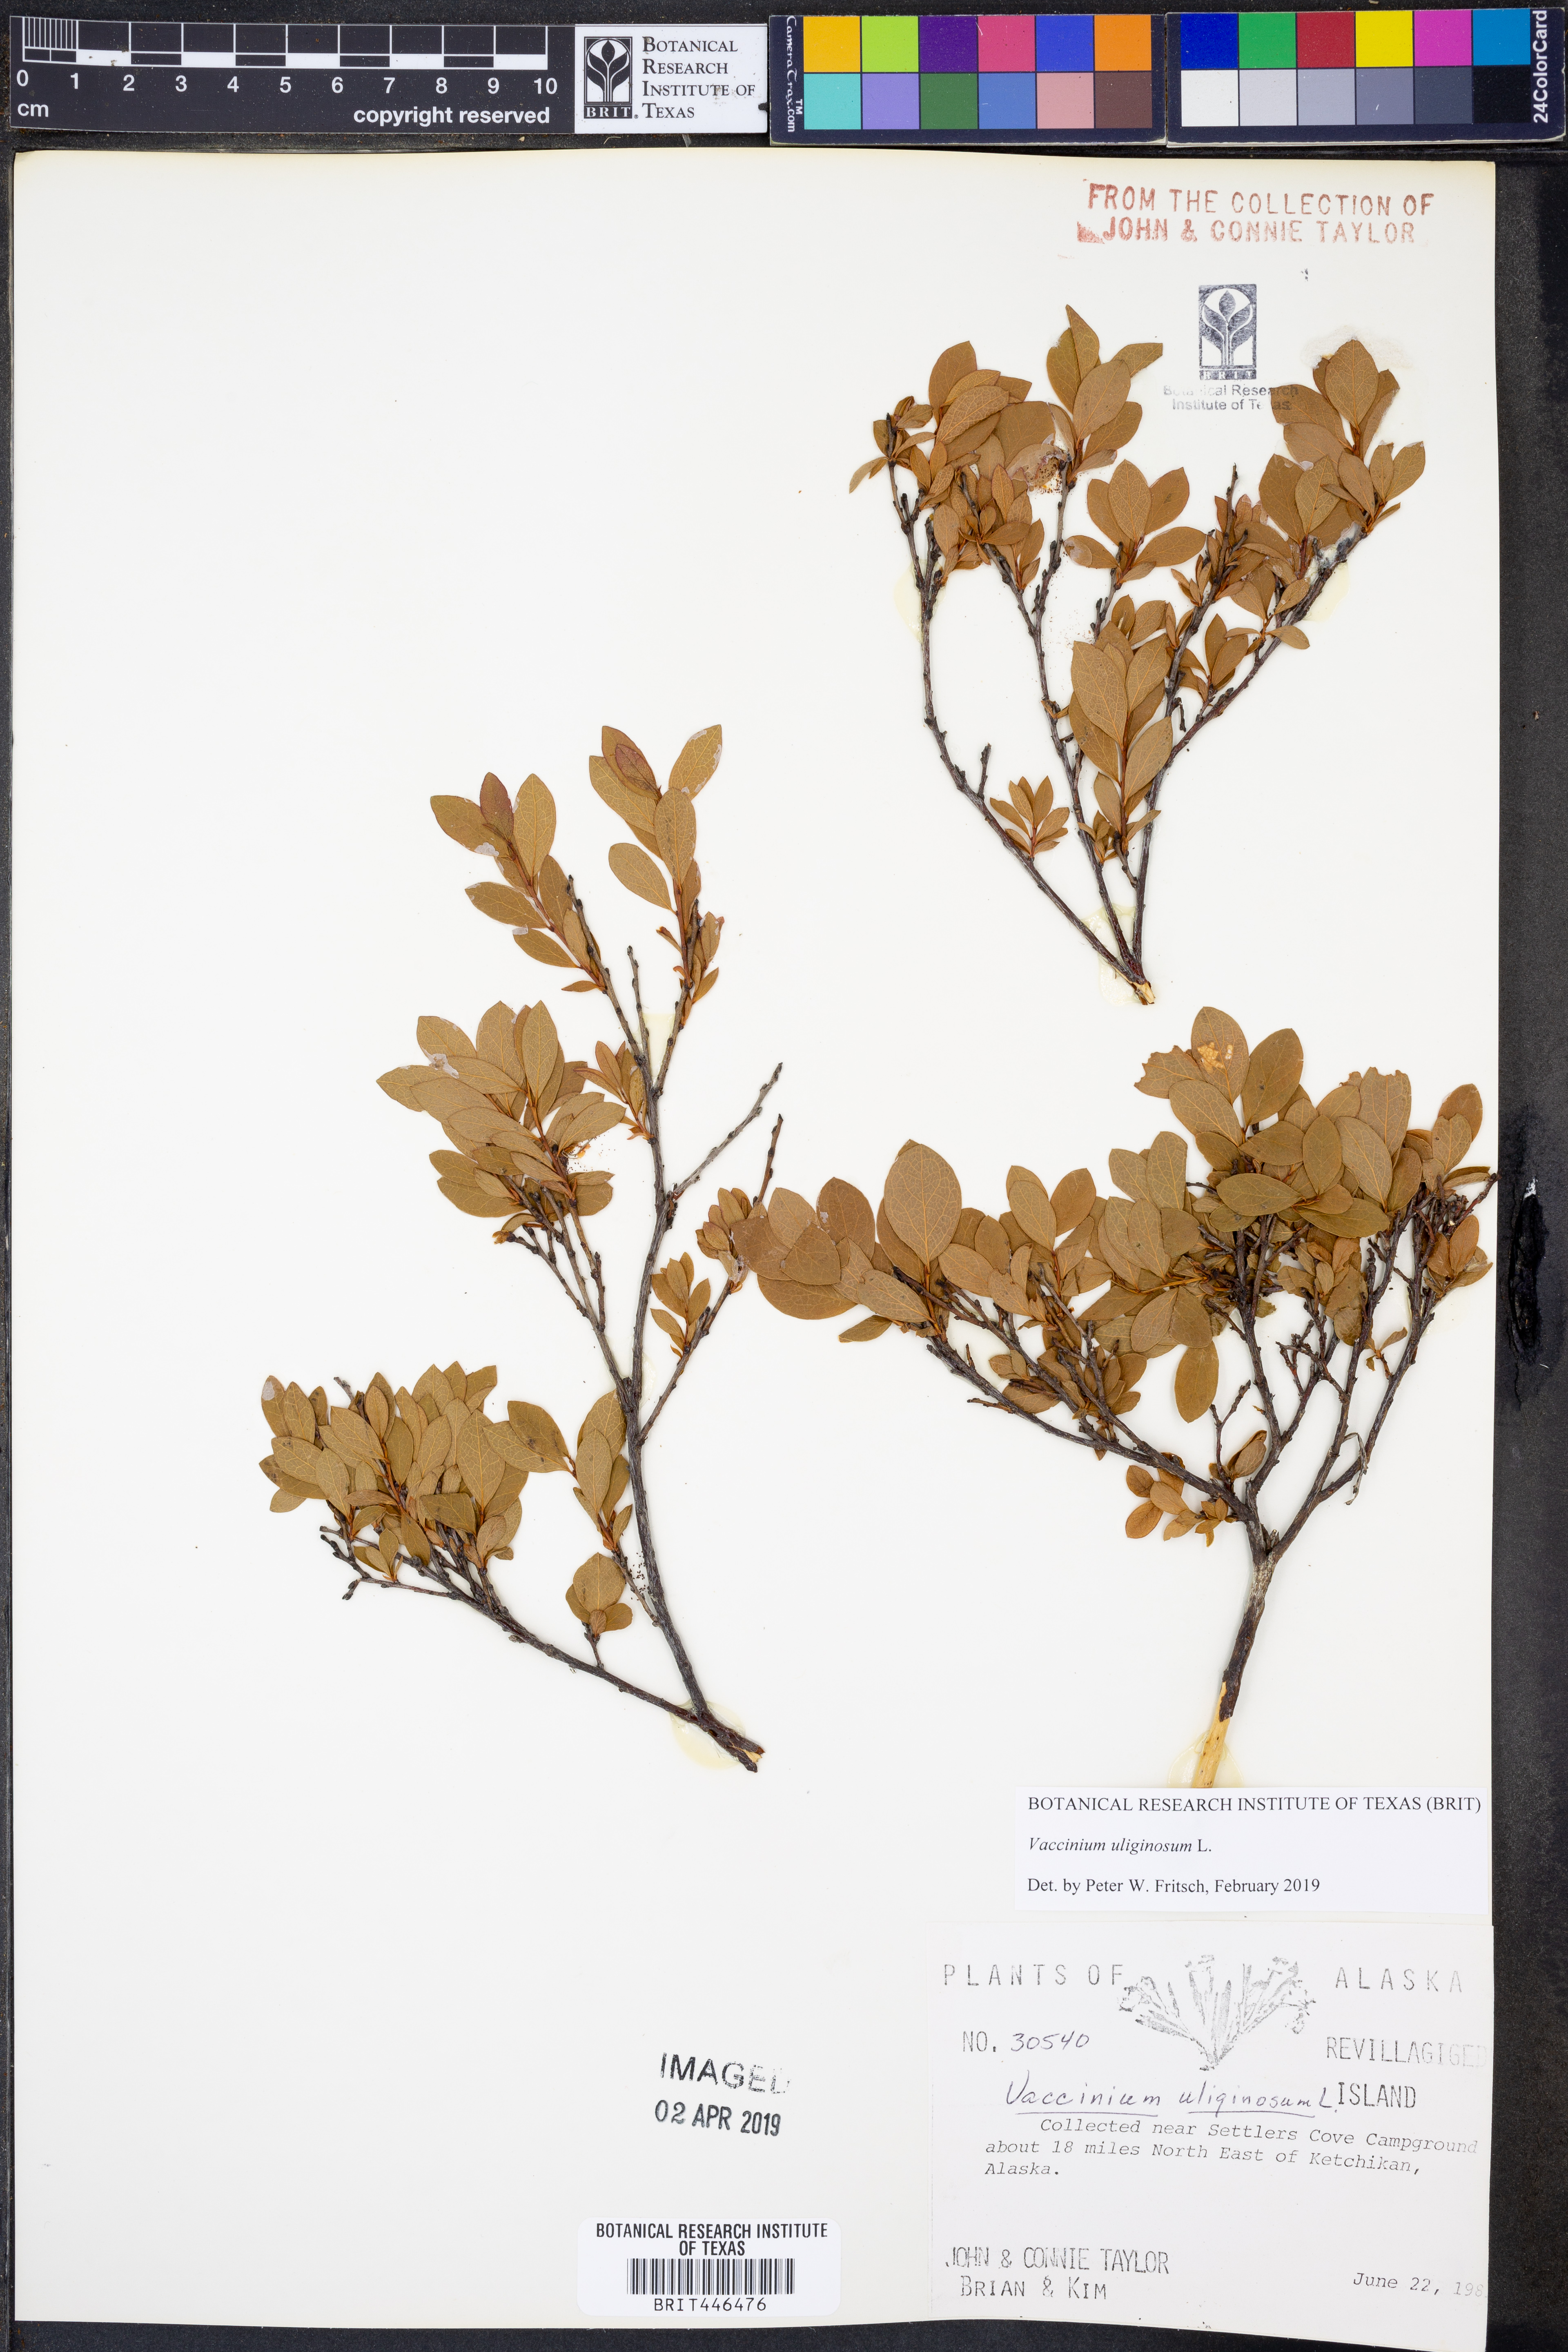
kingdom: Plantae
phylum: Tracheophyta
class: Magnoliopsida
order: Ericales
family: Ericaceae
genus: Vaccinium
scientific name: Vaccinium uliginosum
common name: Bog bilberry
